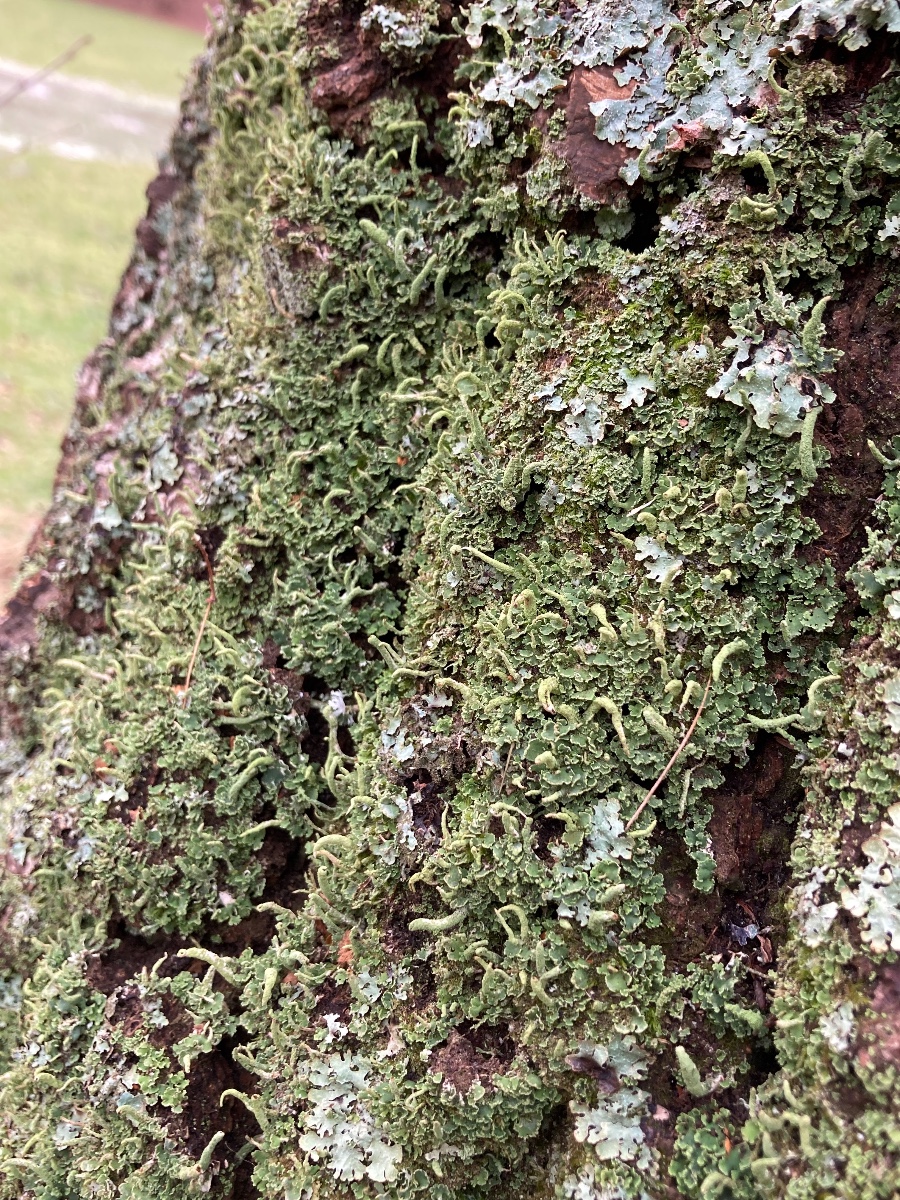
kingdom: Fungi
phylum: Ascomycota
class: Lecanoromycetes
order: Lecanorales
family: Cladoniaceae
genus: Cladonia
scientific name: Cladonia coniocraea
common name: træfods-bægerlav
